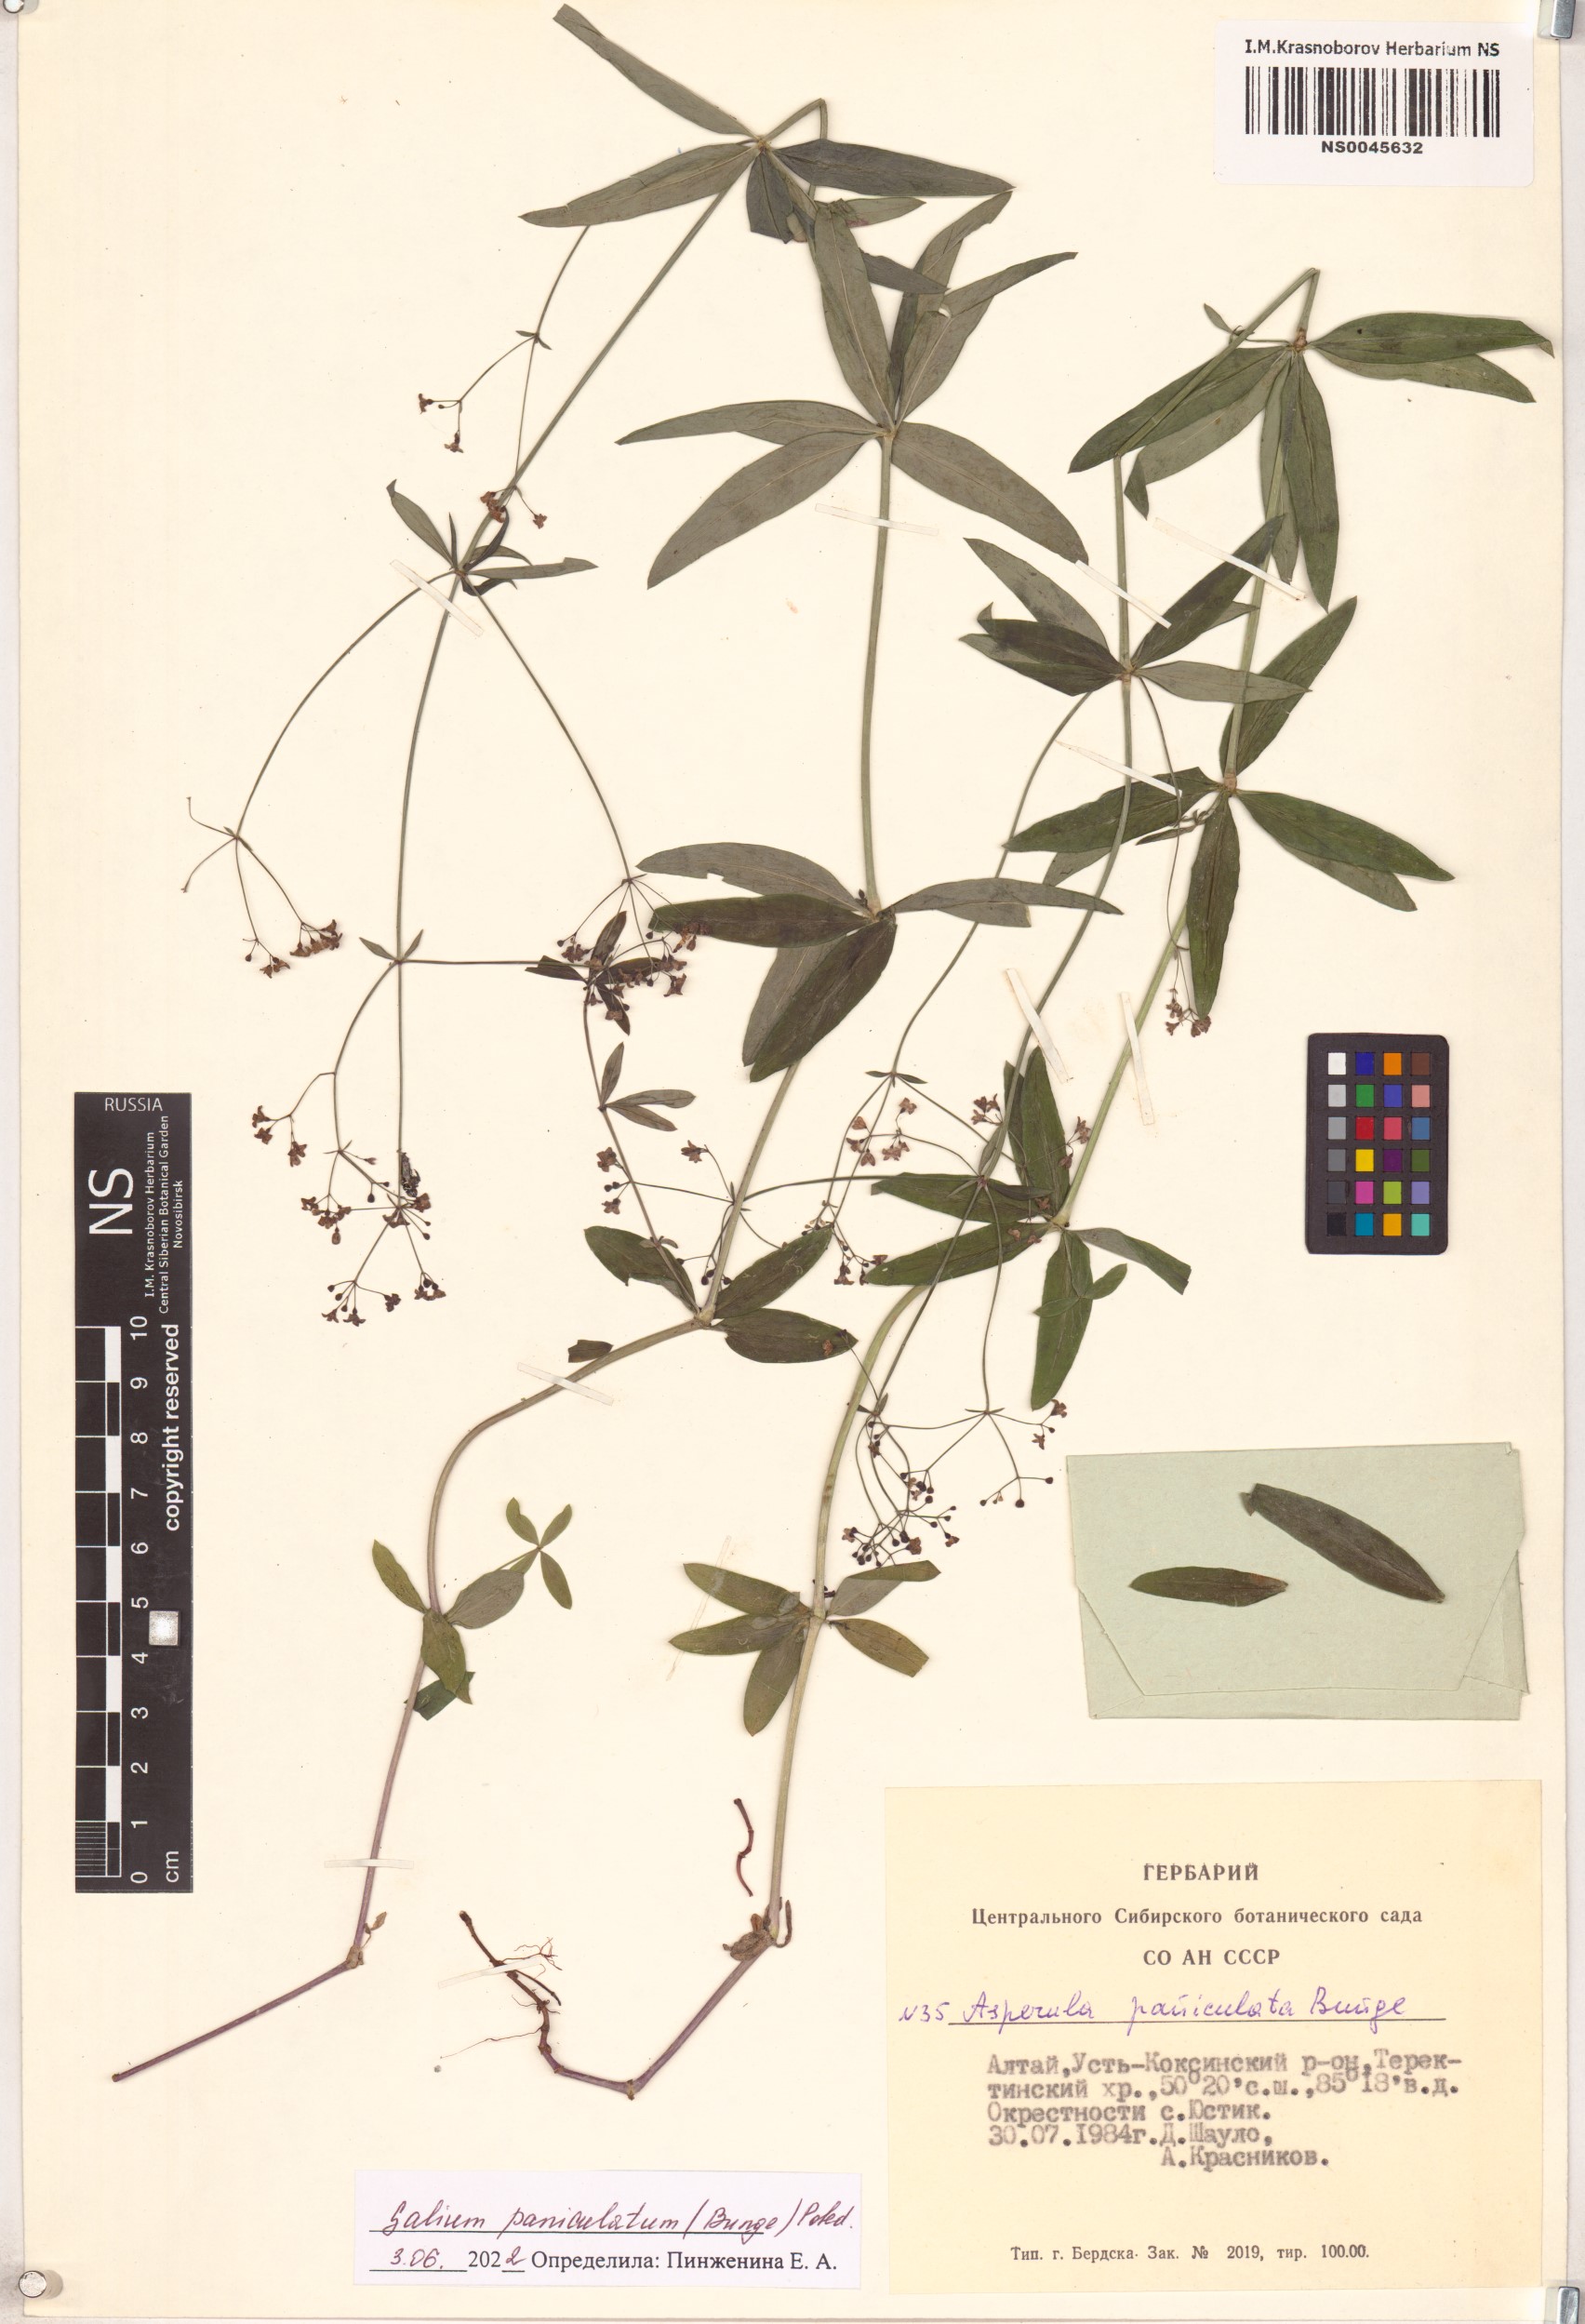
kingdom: Plantae
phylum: Tracheophyta
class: Magnoliopsida
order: Gentianales
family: Rubiaceae
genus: Galium
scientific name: Galium paniculatum
